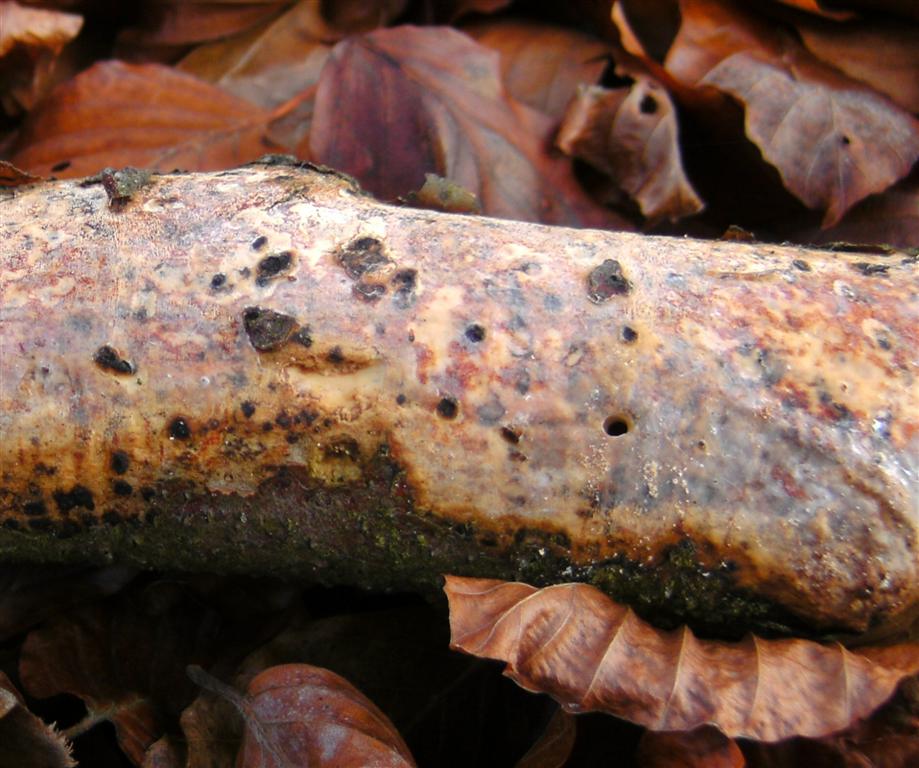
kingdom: Fungi
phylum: Basidiomycota
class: Agaricomycetes
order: Corticiales
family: Vuilleminiaceae
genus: Vuilleminia
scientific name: Vuilleminia comedens
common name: almindelig barksprænger
